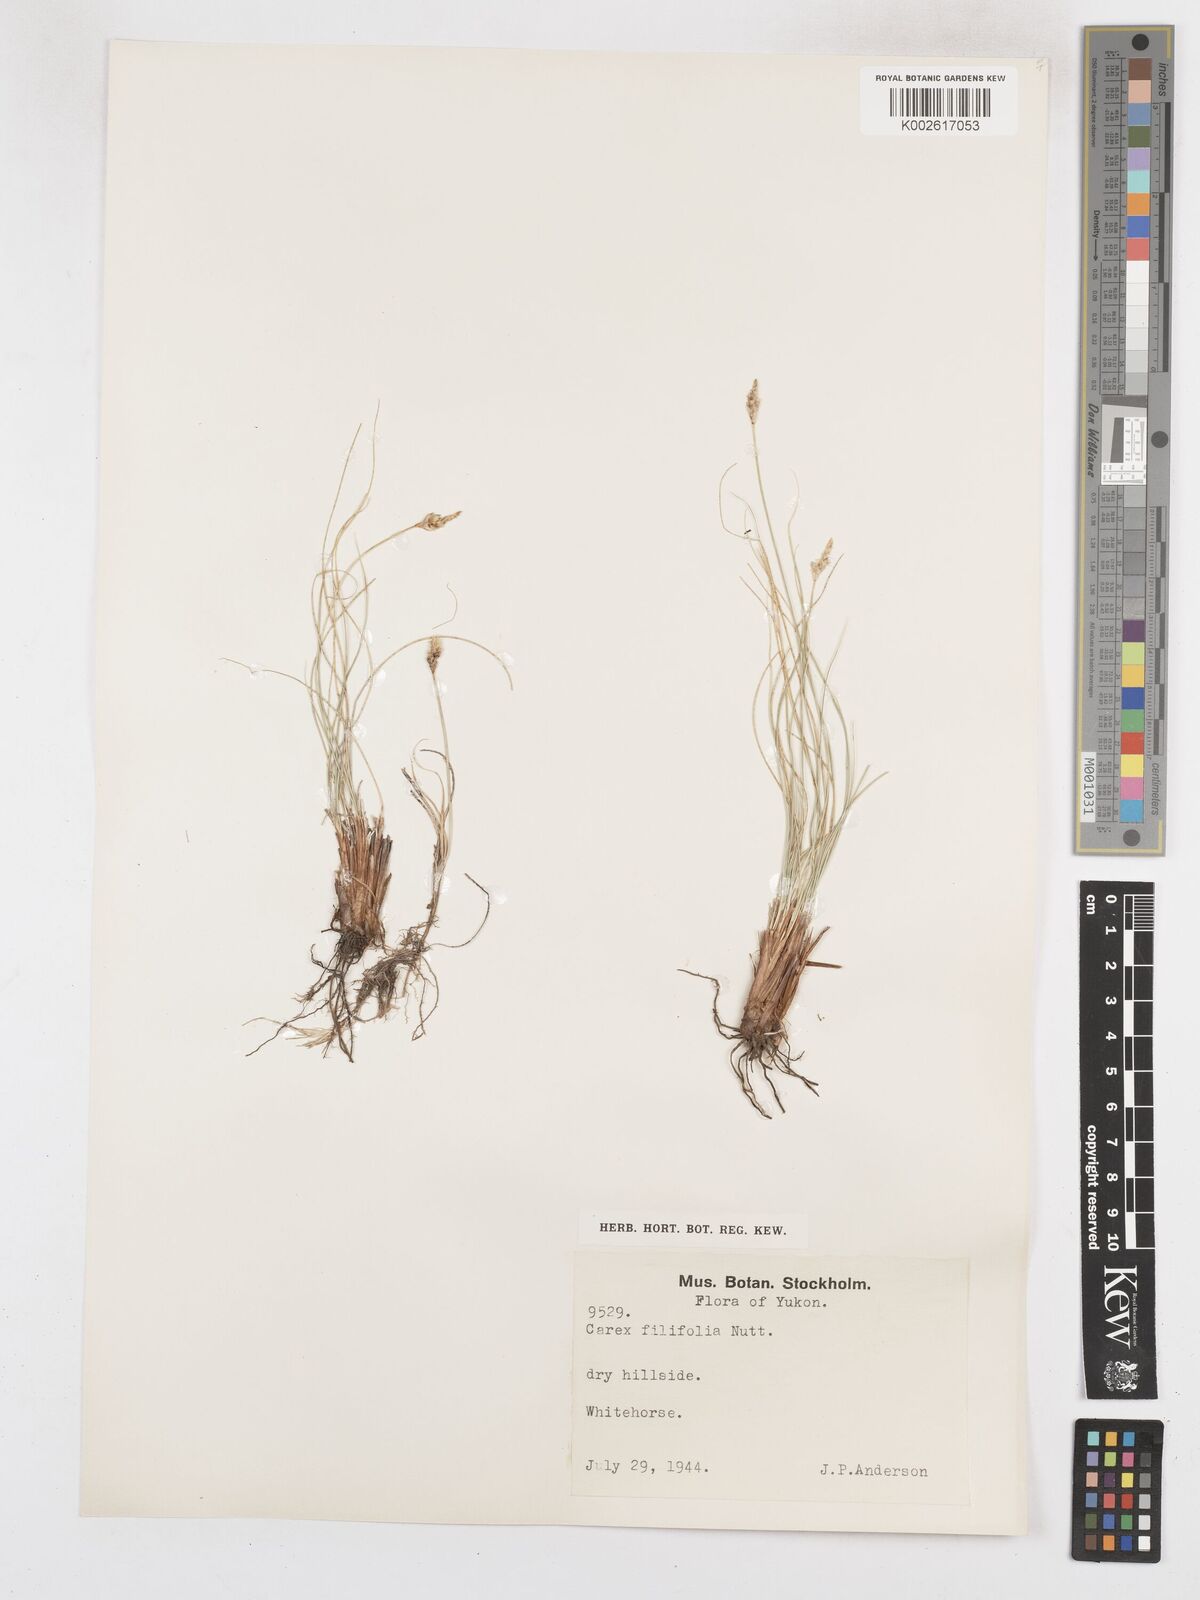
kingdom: Plantae
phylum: Tracheophyta
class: Liliopsida
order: Poales
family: Cyperaceae
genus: Carex
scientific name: Carex filifolia
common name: Threadleaf sedge
